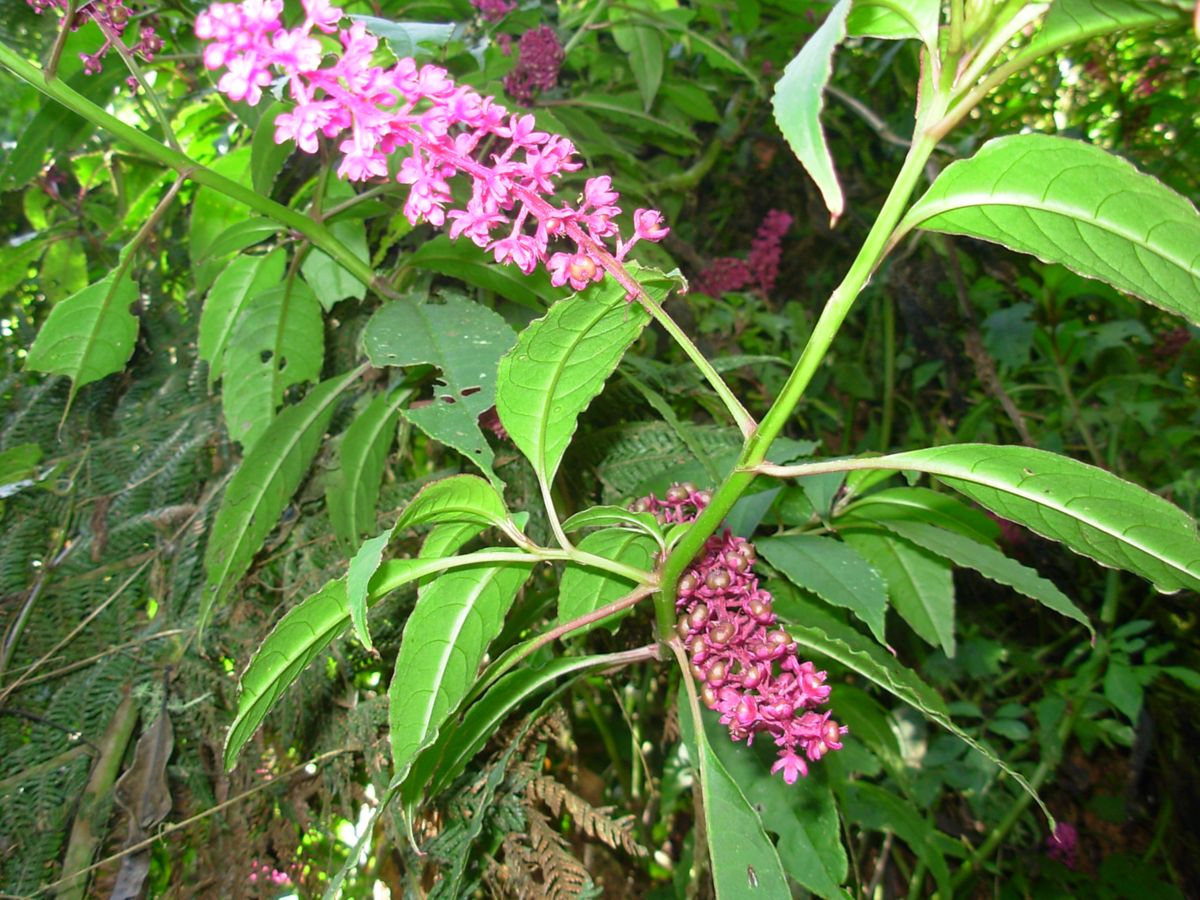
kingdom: Plantae
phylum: Tracheophyta
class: Magnoliopsida
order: Caryophyllales
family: Phytolaccaceae
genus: Phytolacca
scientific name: Phytolacca icosandra
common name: Button pokeweed
